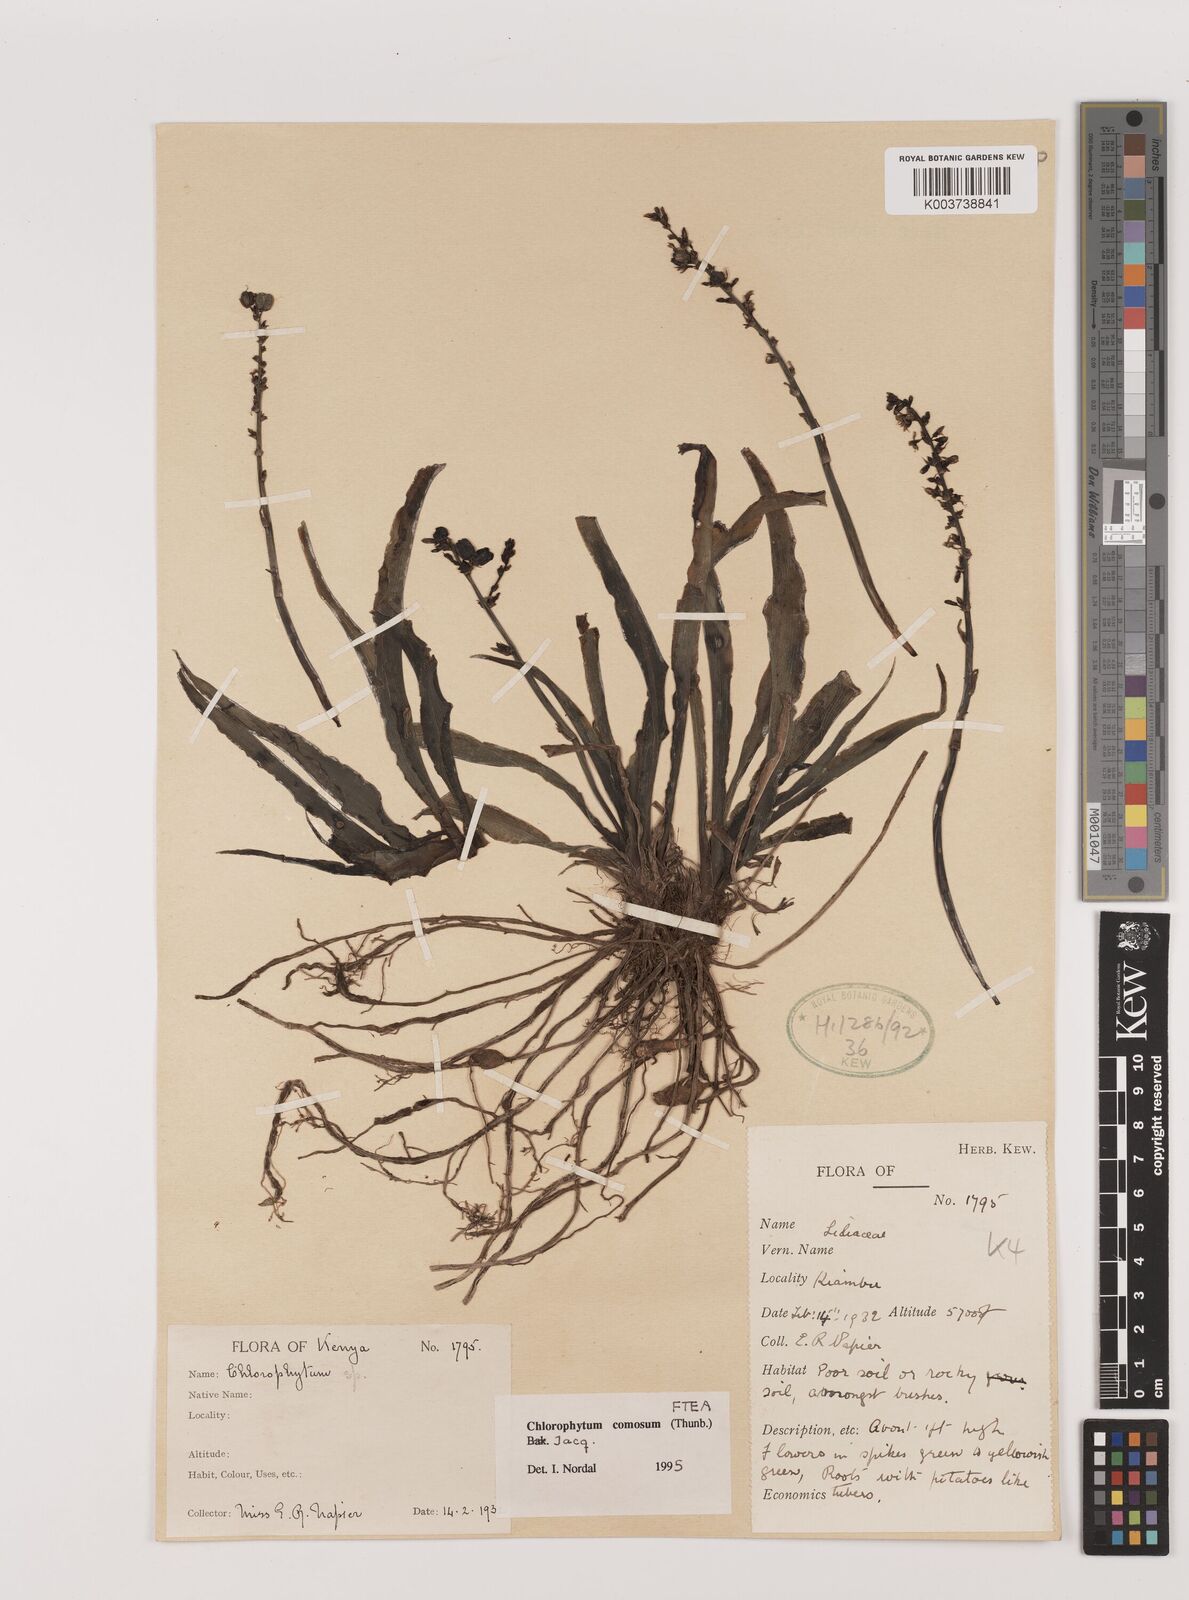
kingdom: Plantae
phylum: Tracheophyta
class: Liliopsida
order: Asparagales
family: Asparagaceae
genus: Chlorophytum
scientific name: Chlorophytum comosum
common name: Spider plant
